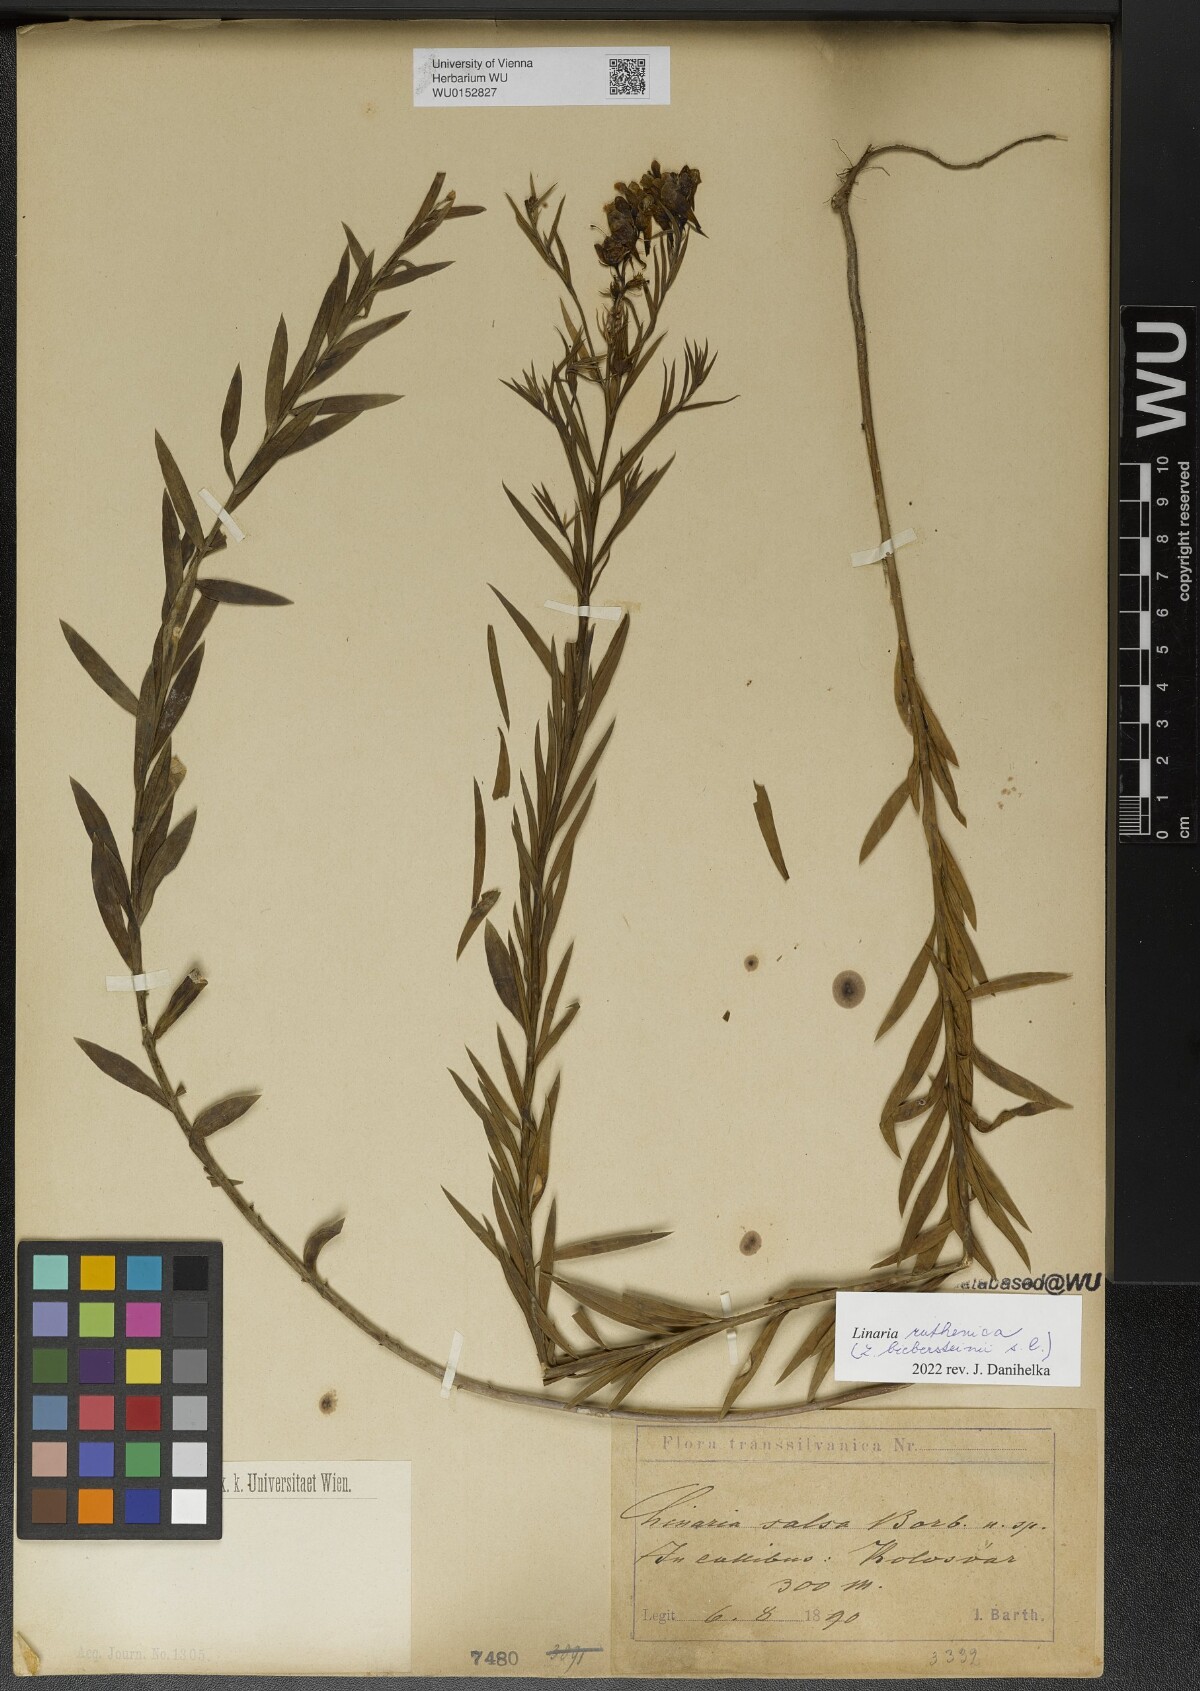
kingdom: Plantae
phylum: Tracheophyta
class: Magnoliopsida
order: Lamiales
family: Plantaginaceae
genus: Linaria
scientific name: Linaria biebersteinii
